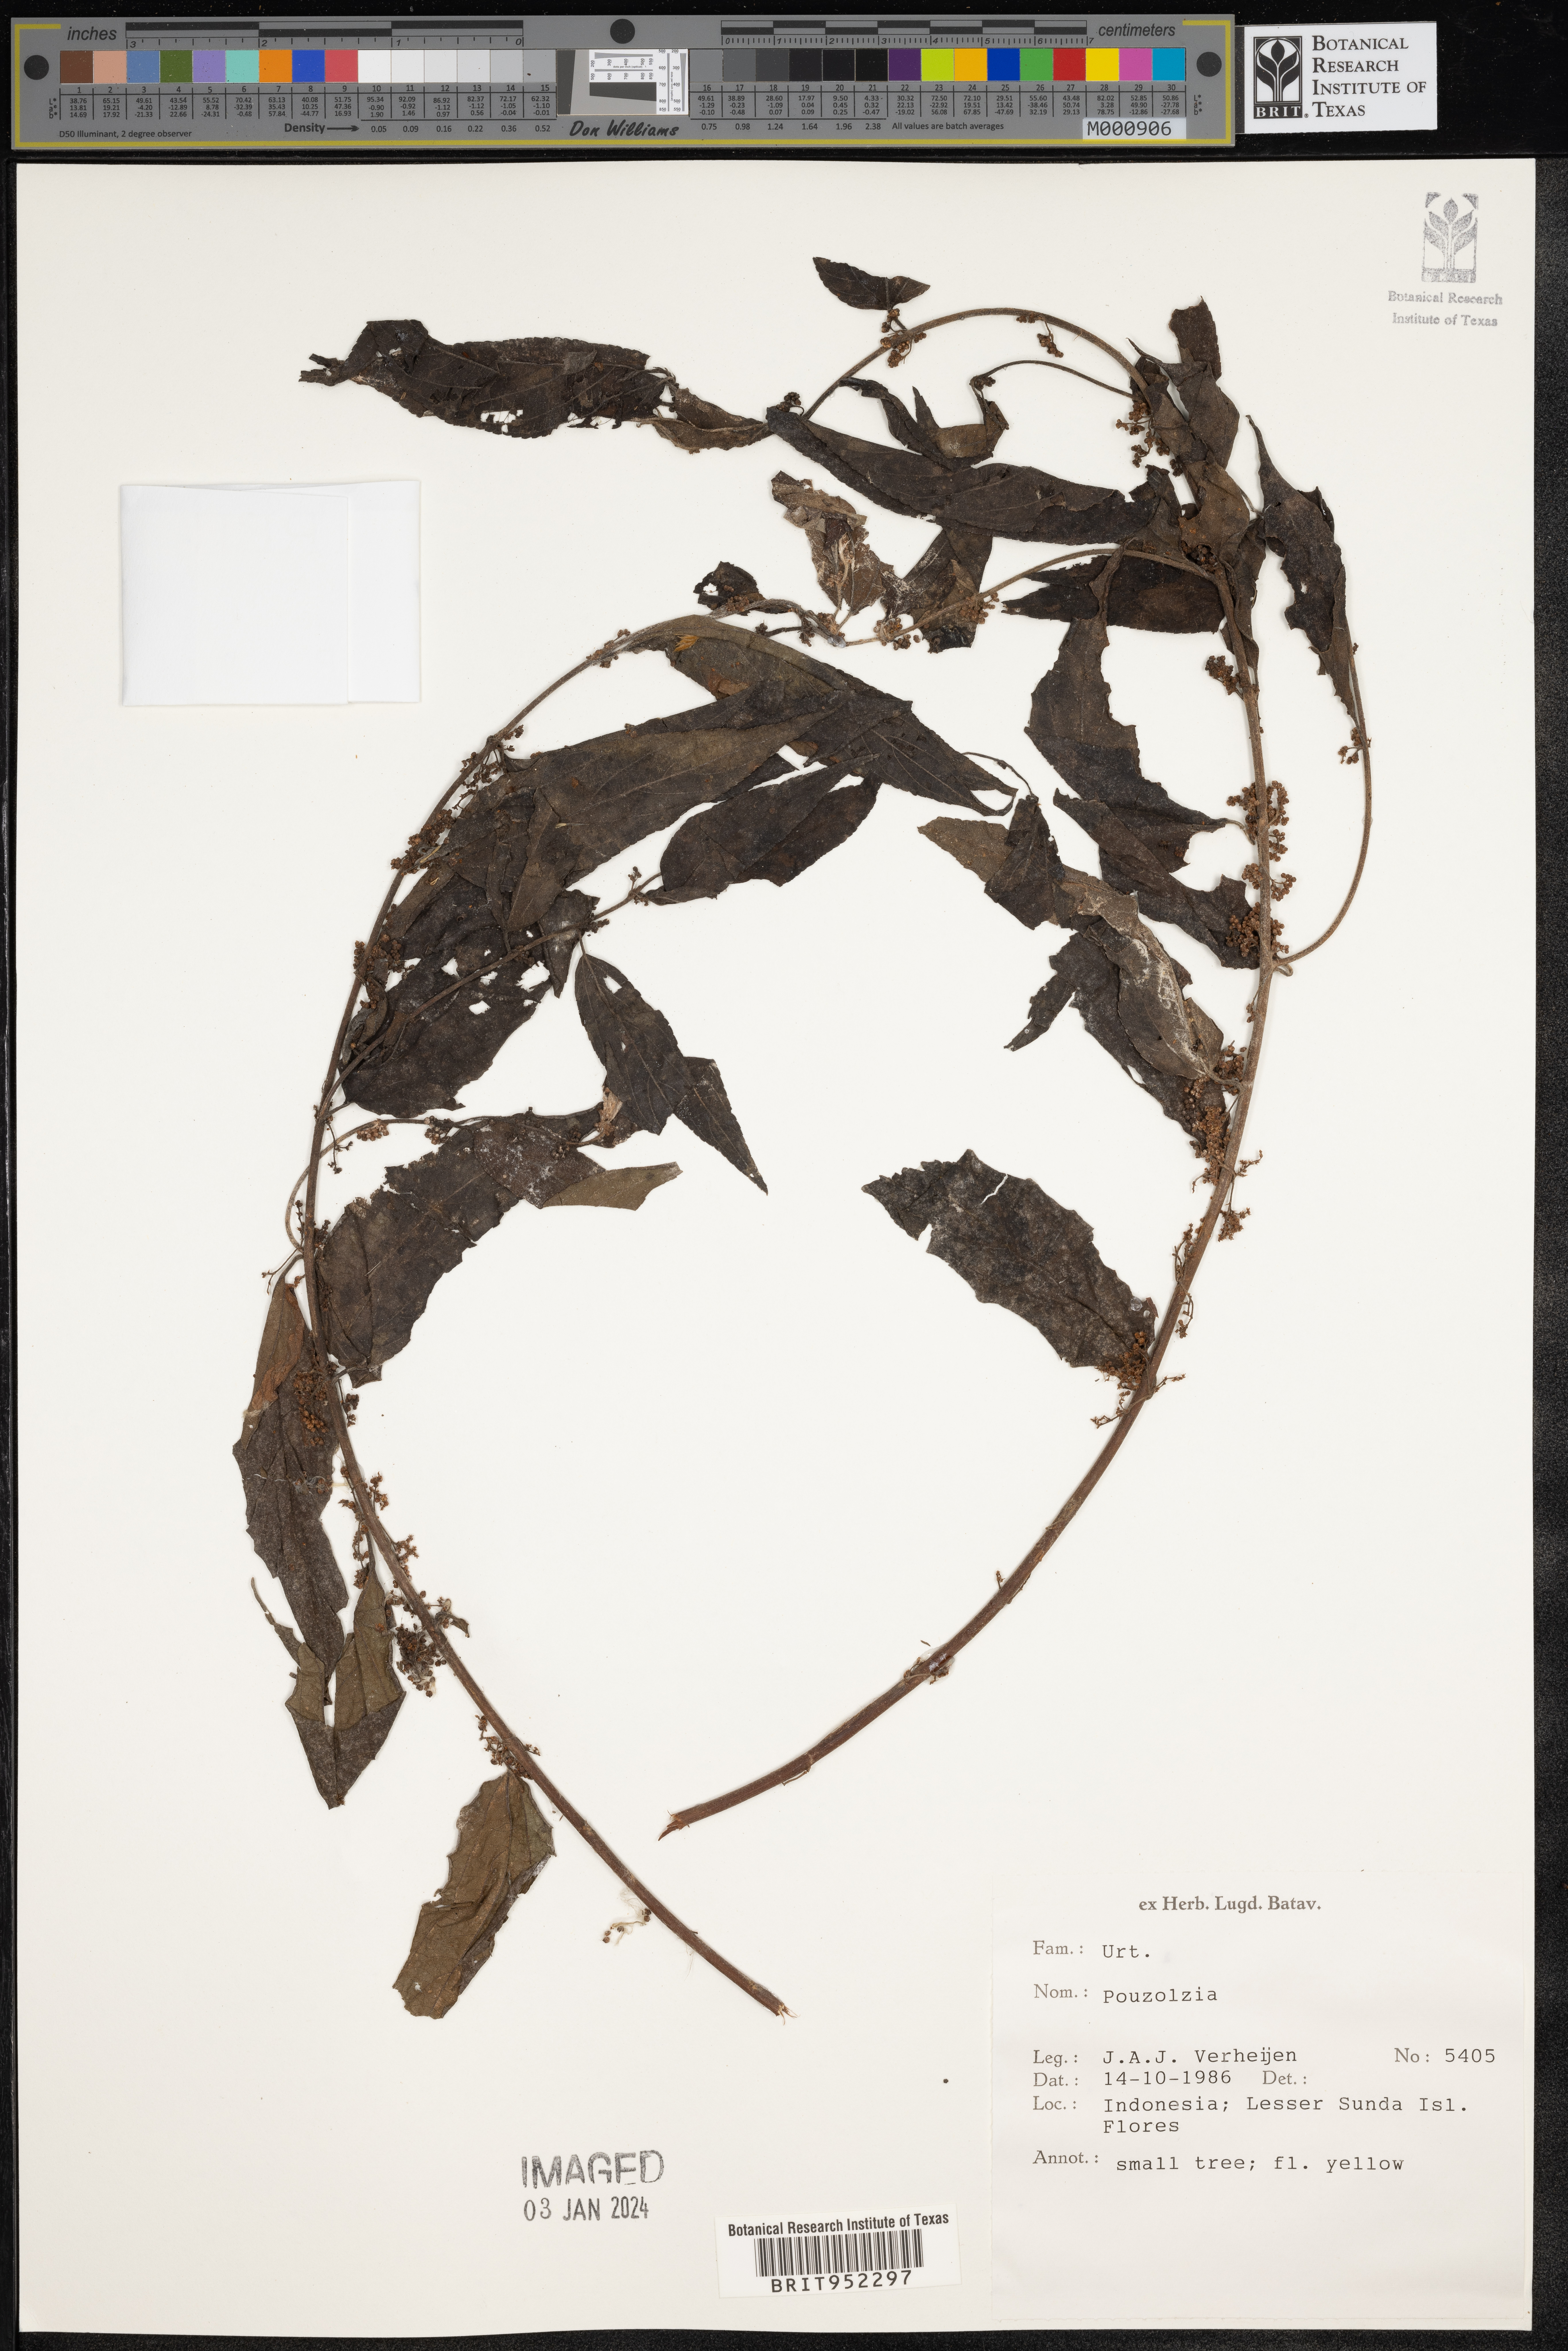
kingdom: Plantae
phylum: Tracheophyta
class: Magnoliopsida
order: Rosales
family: Urticaceae
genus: Pouzolzia
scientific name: Pouzolzia
